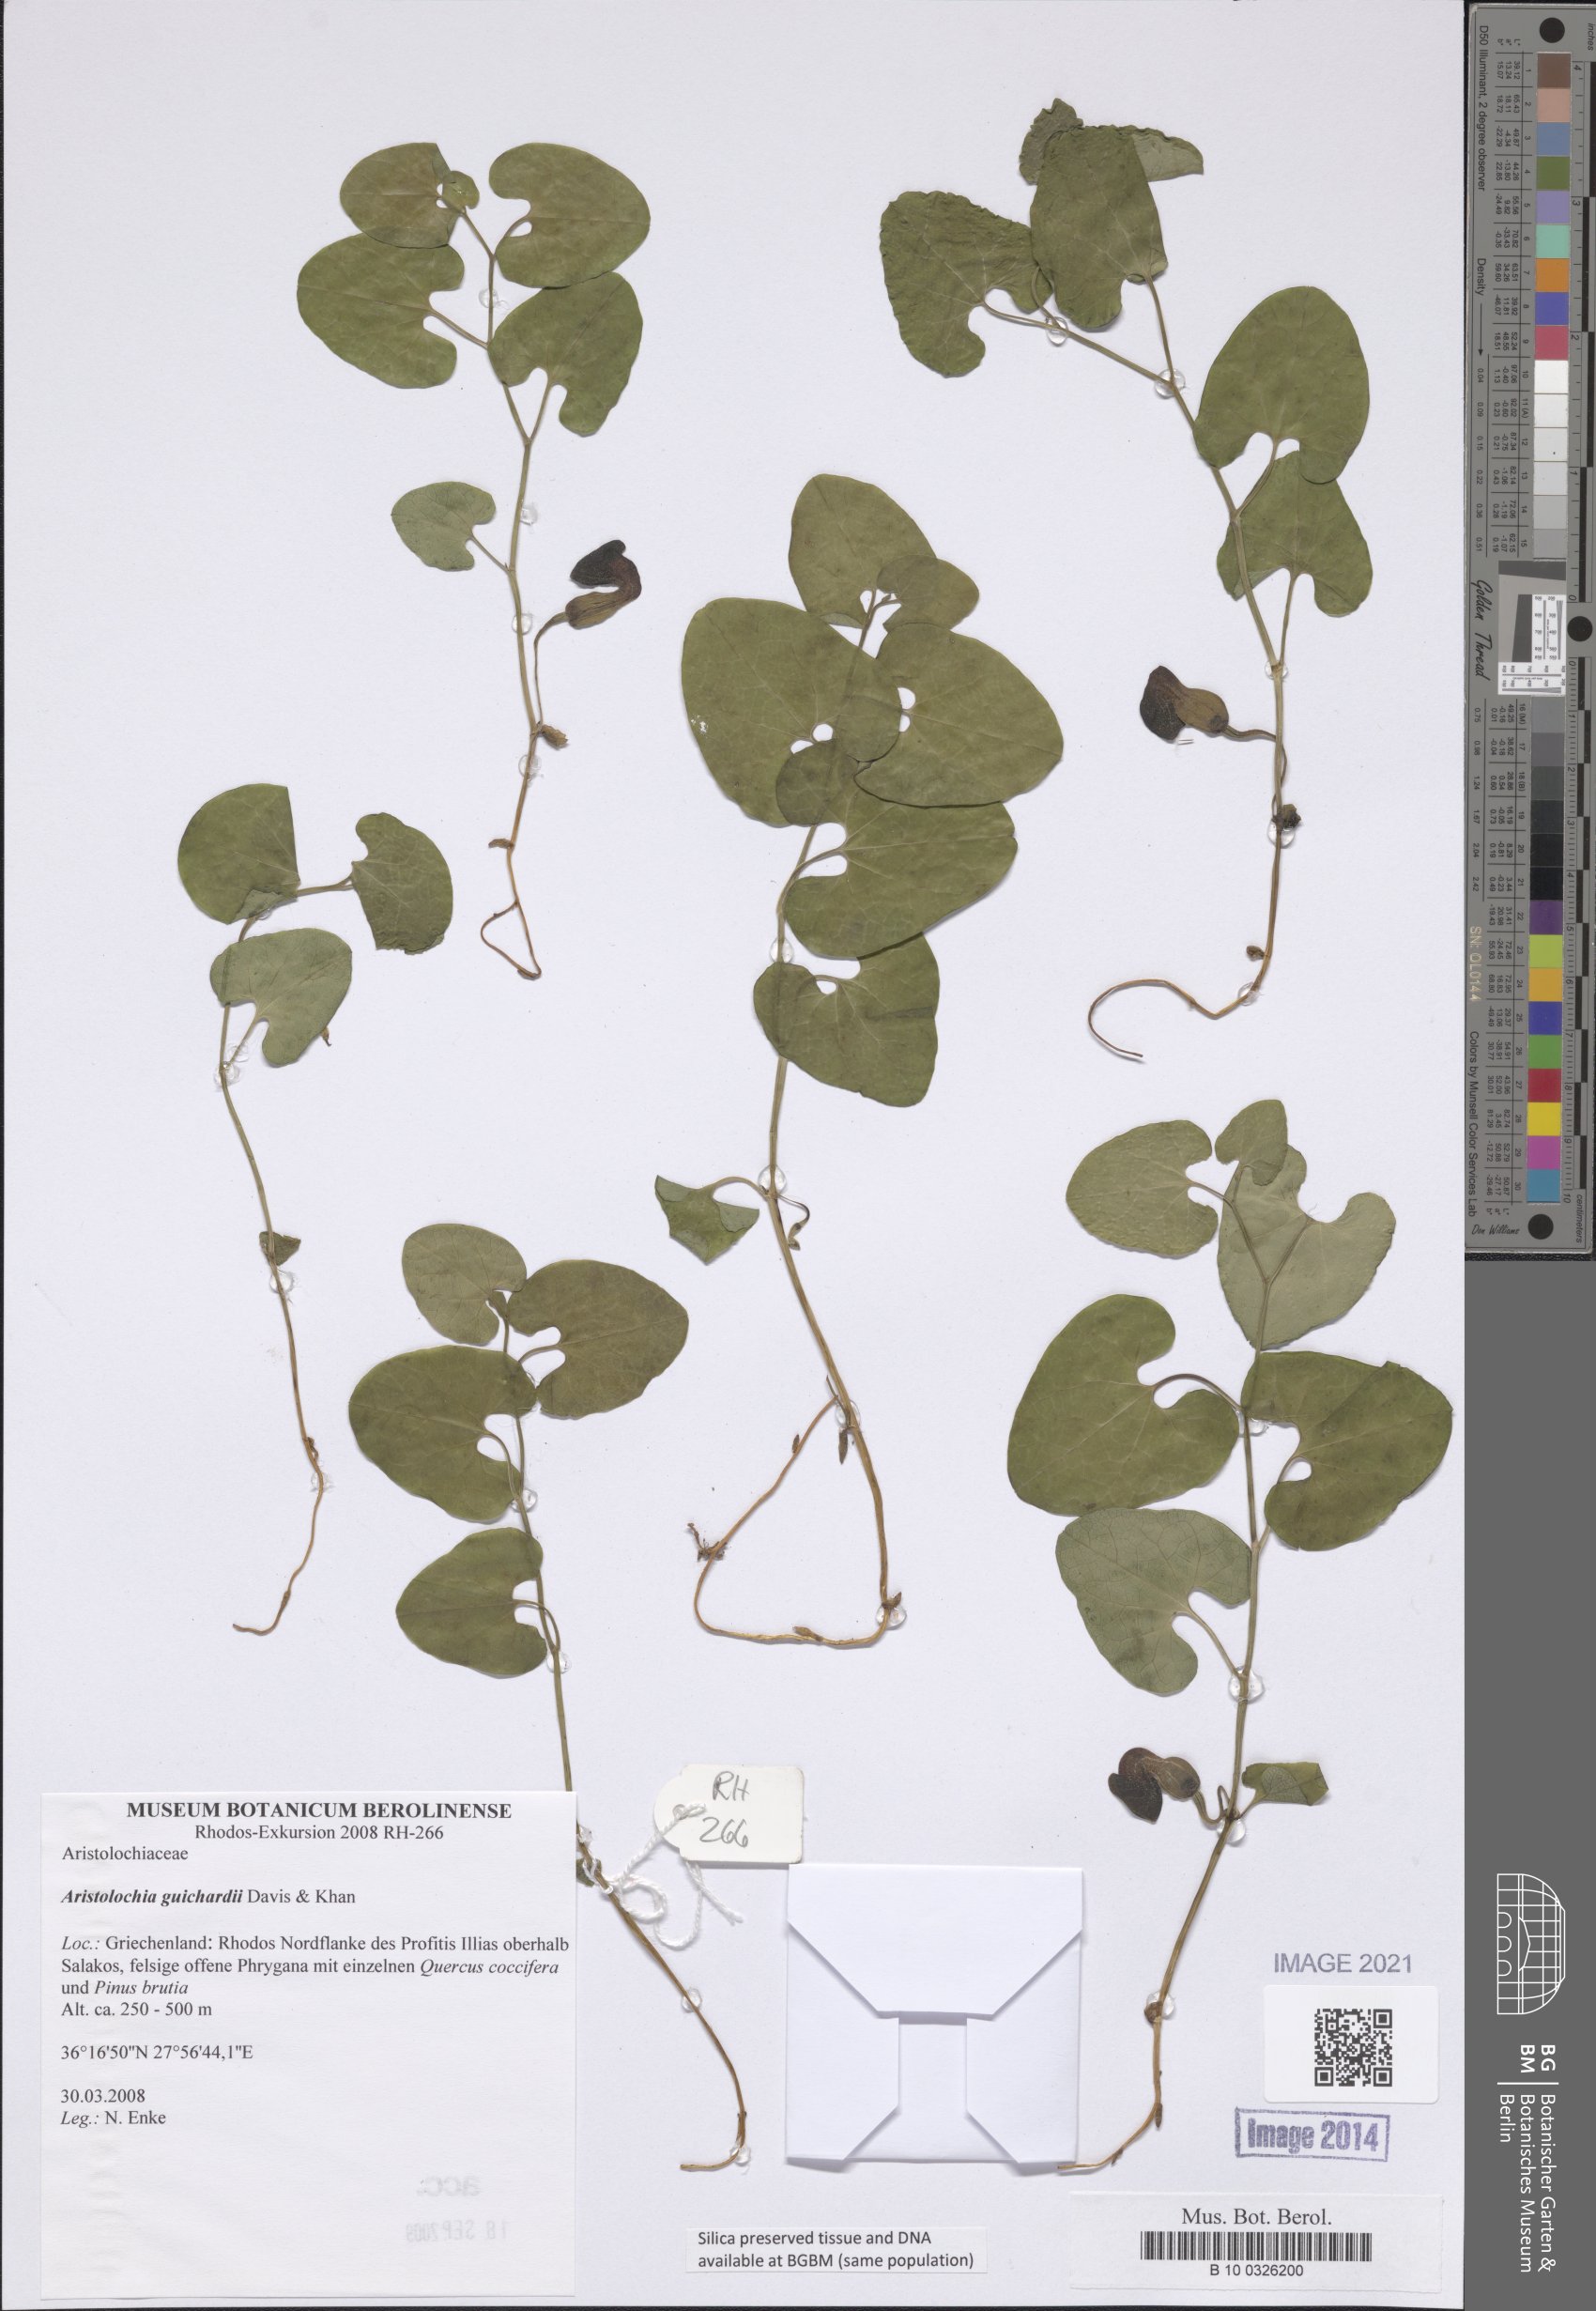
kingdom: Plantae
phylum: Tracheophyta
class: Magnoliopsida
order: Piperales
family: Aristolochiaceae
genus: Aristolochia
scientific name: Aristolochia guichardii
